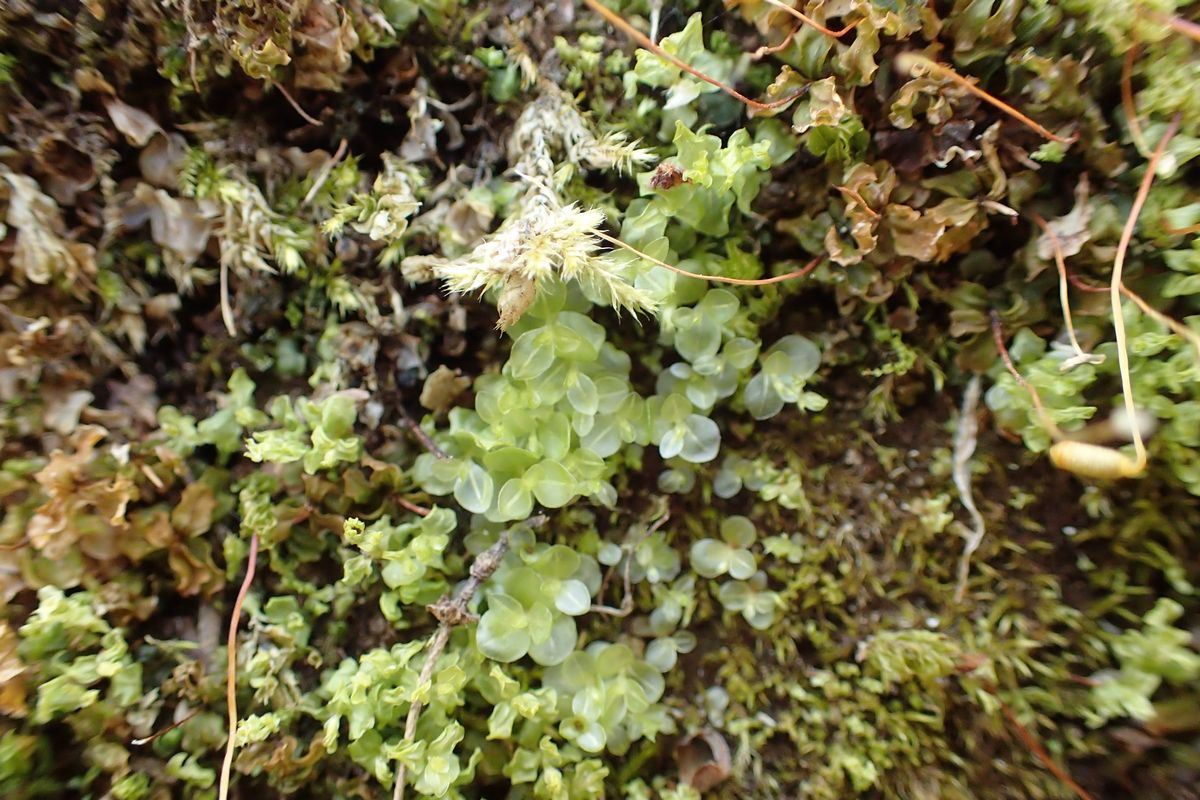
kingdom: Plantae
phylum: Bryophyta
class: Bryopsida
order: Dicranales
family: Schistostegaceae
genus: Schistostega
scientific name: Schistostega pennata
